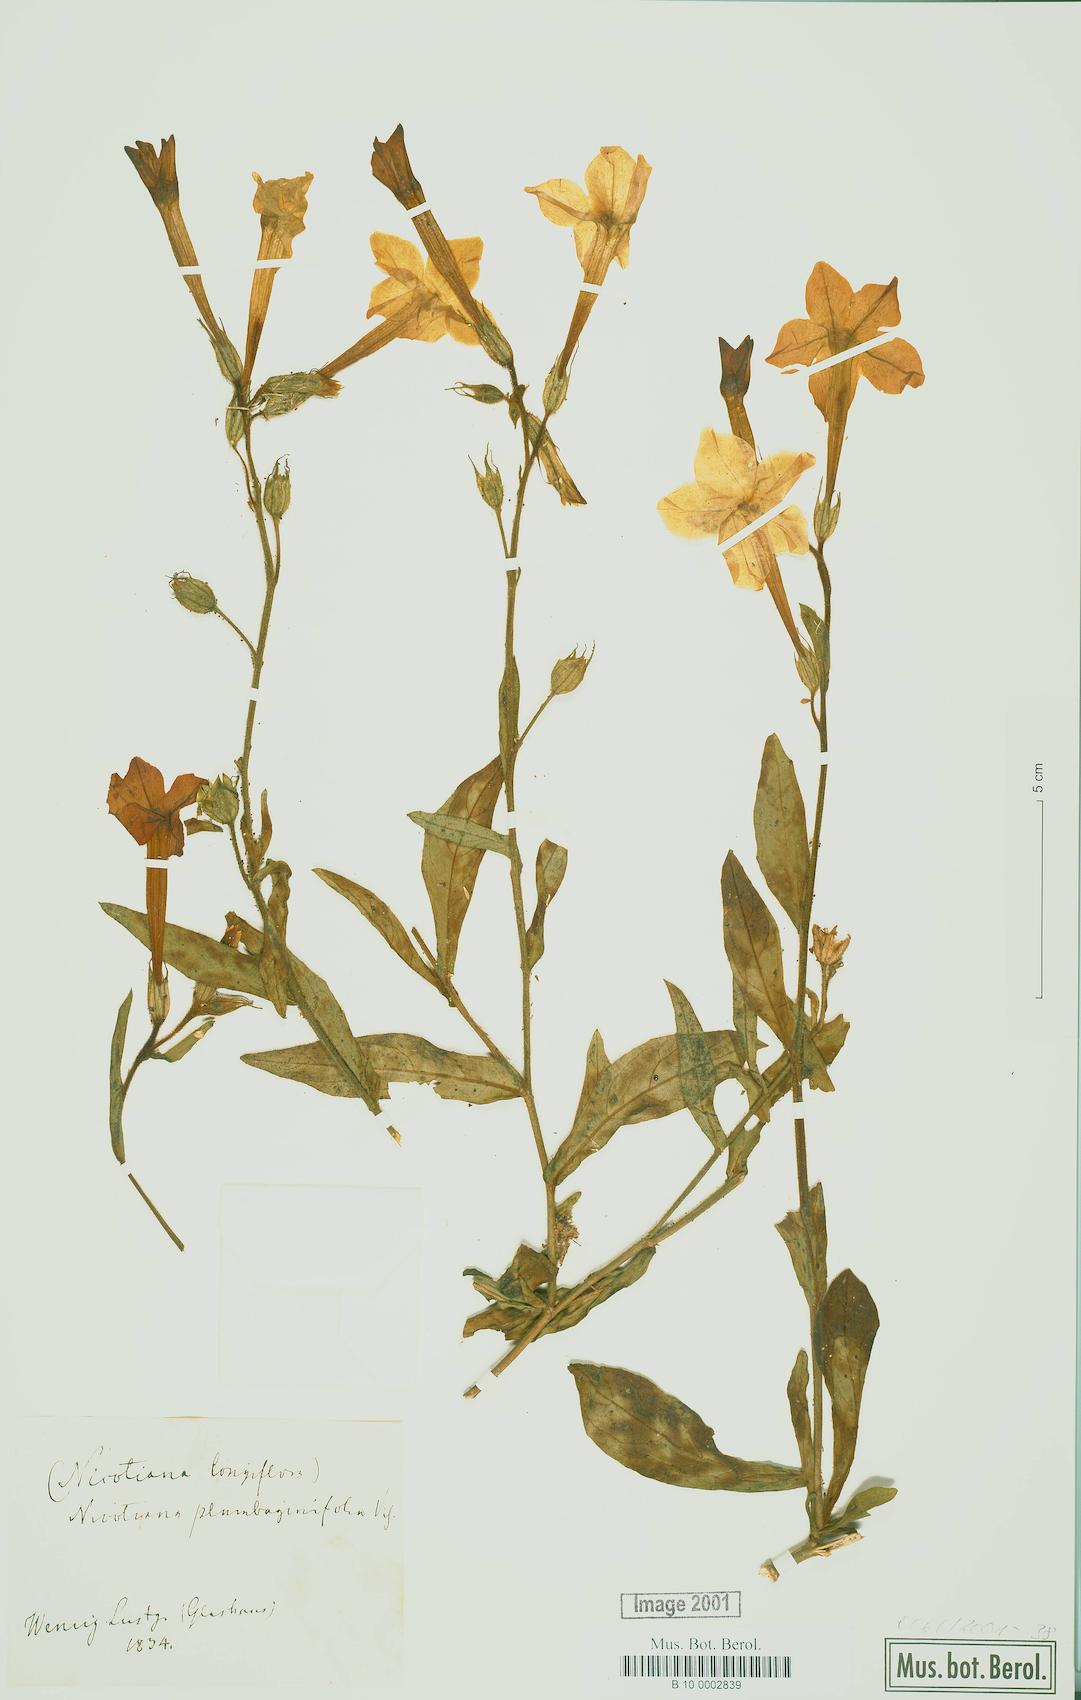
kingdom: Plantae
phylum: Tracheophyta
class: Magnoliopsida
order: Solanales
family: Solanaceae
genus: Nicotiana
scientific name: Nicotiana plumbaginifolia
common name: Tex-mex tobacco
